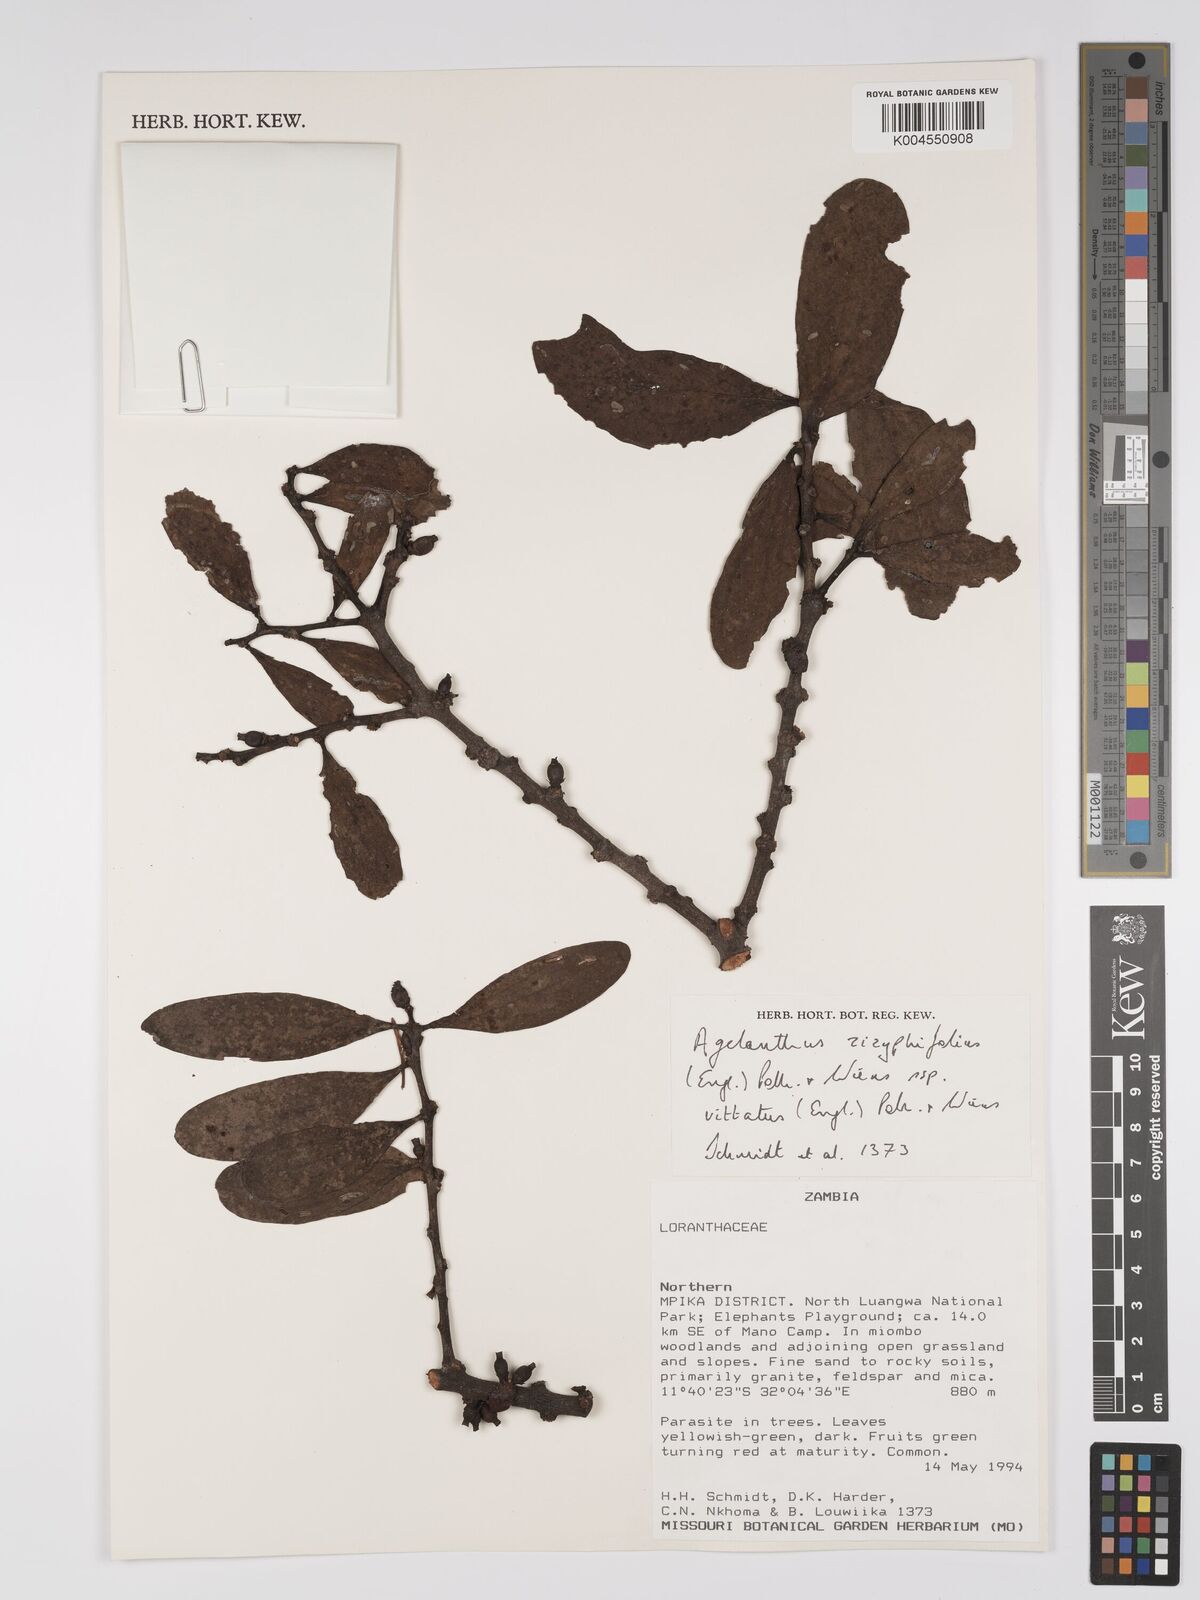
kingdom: Plantae
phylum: Tracheophyta
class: Magnoliopsida
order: Santalales
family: Loranthaceae
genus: Agelanthus
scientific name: Agelanthus zizyphifolius
